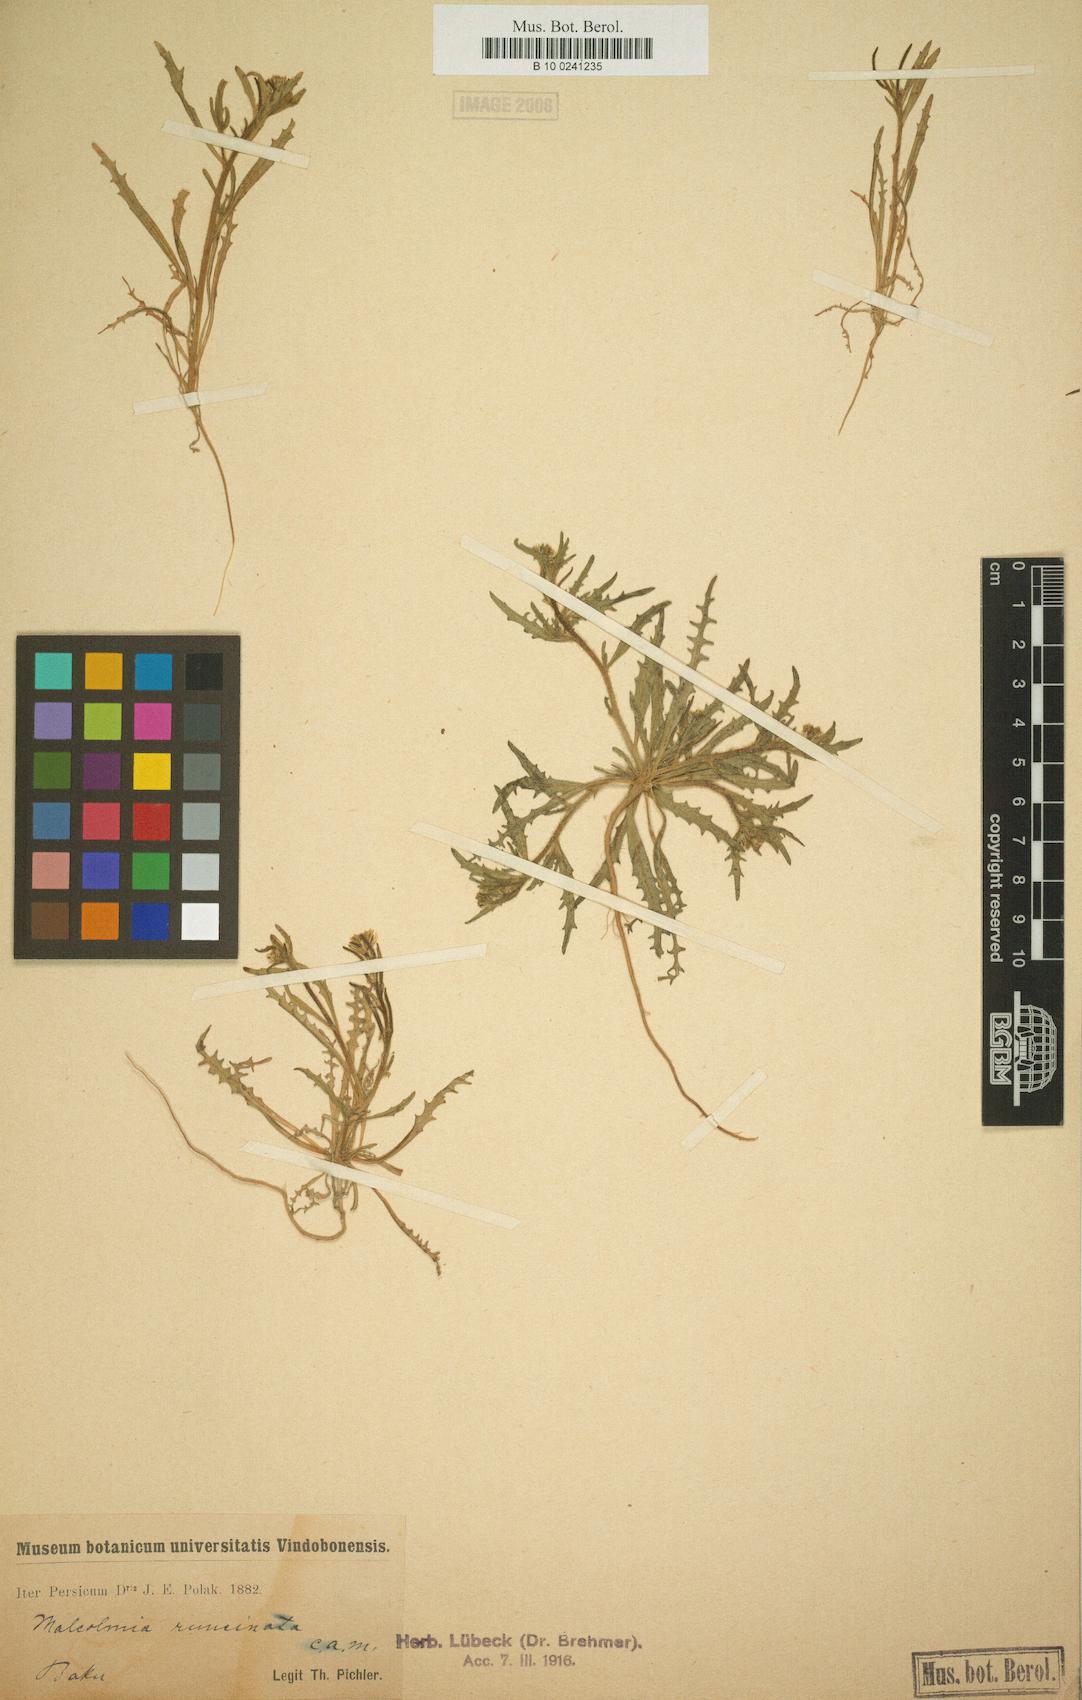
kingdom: Plantae
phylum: Tracheophyta
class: Magnoliopsida
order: Brassicales
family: Brassicaceae
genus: Strigosella
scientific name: Strigosella intermedia
